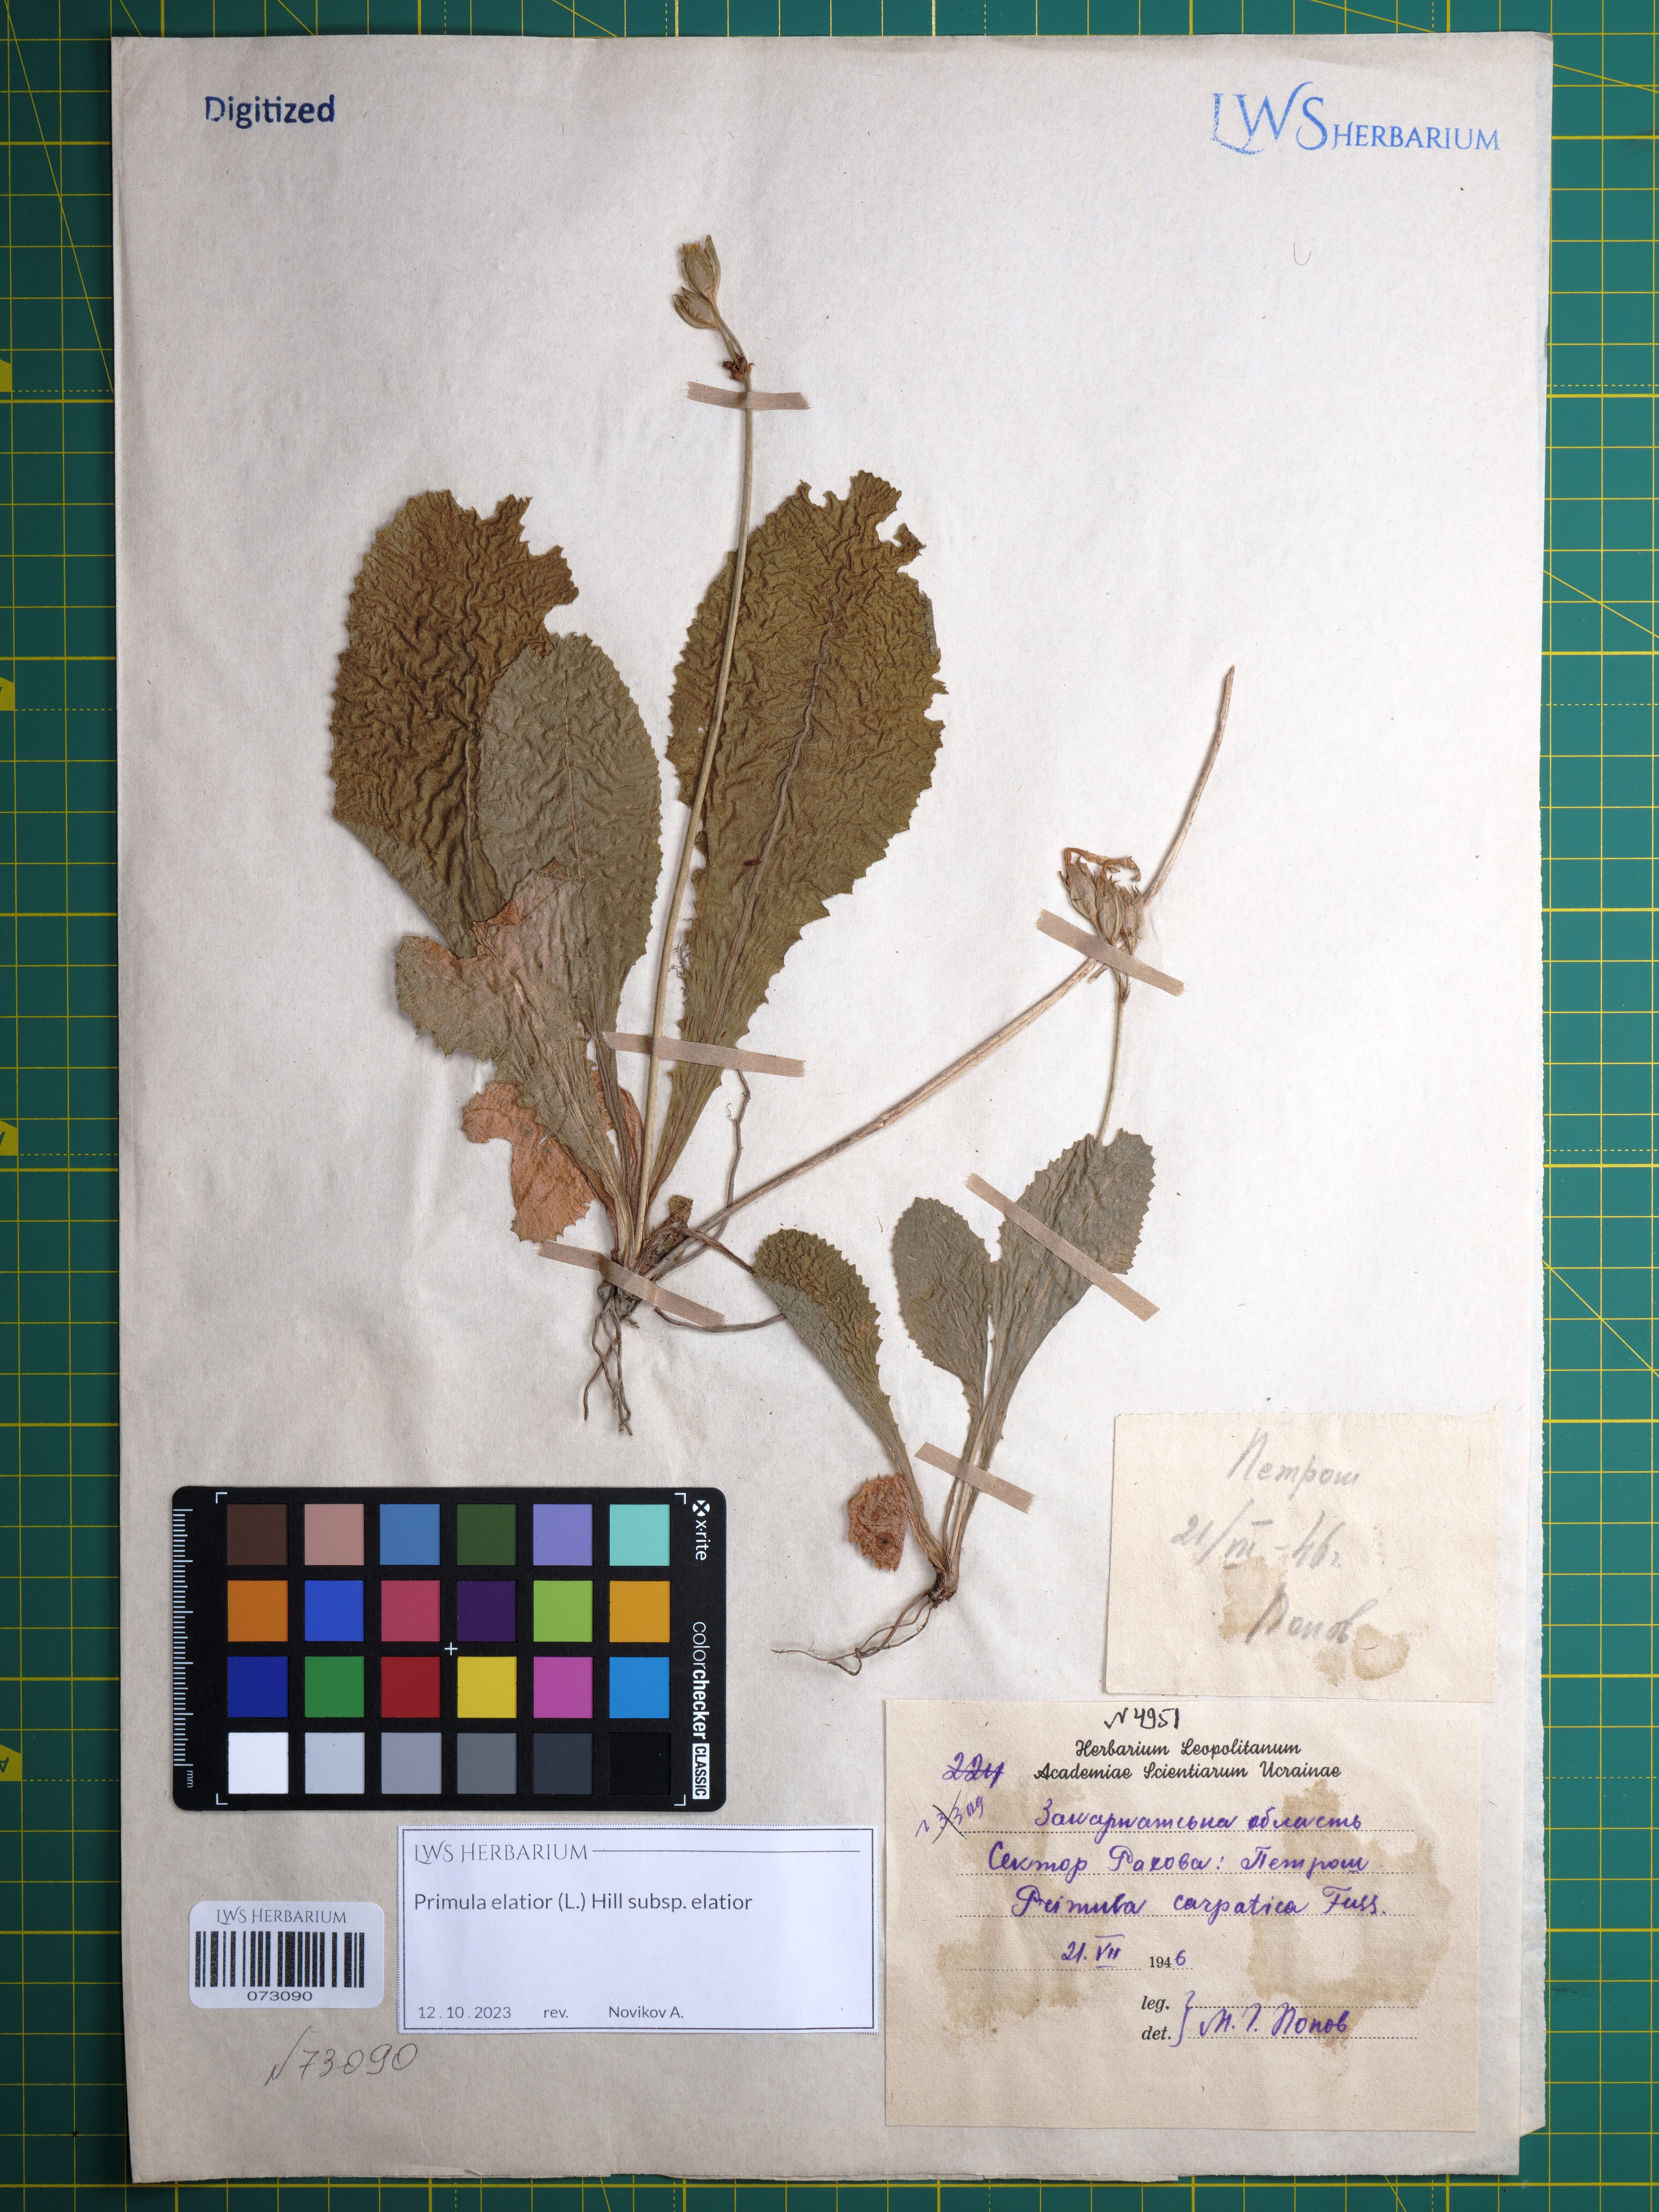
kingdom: Plantae
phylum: Tracheophyta
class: Magnoliopsida
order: Ericales
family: Primulaceae
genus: Primula
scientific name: Primula elatior
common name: Oxlip
